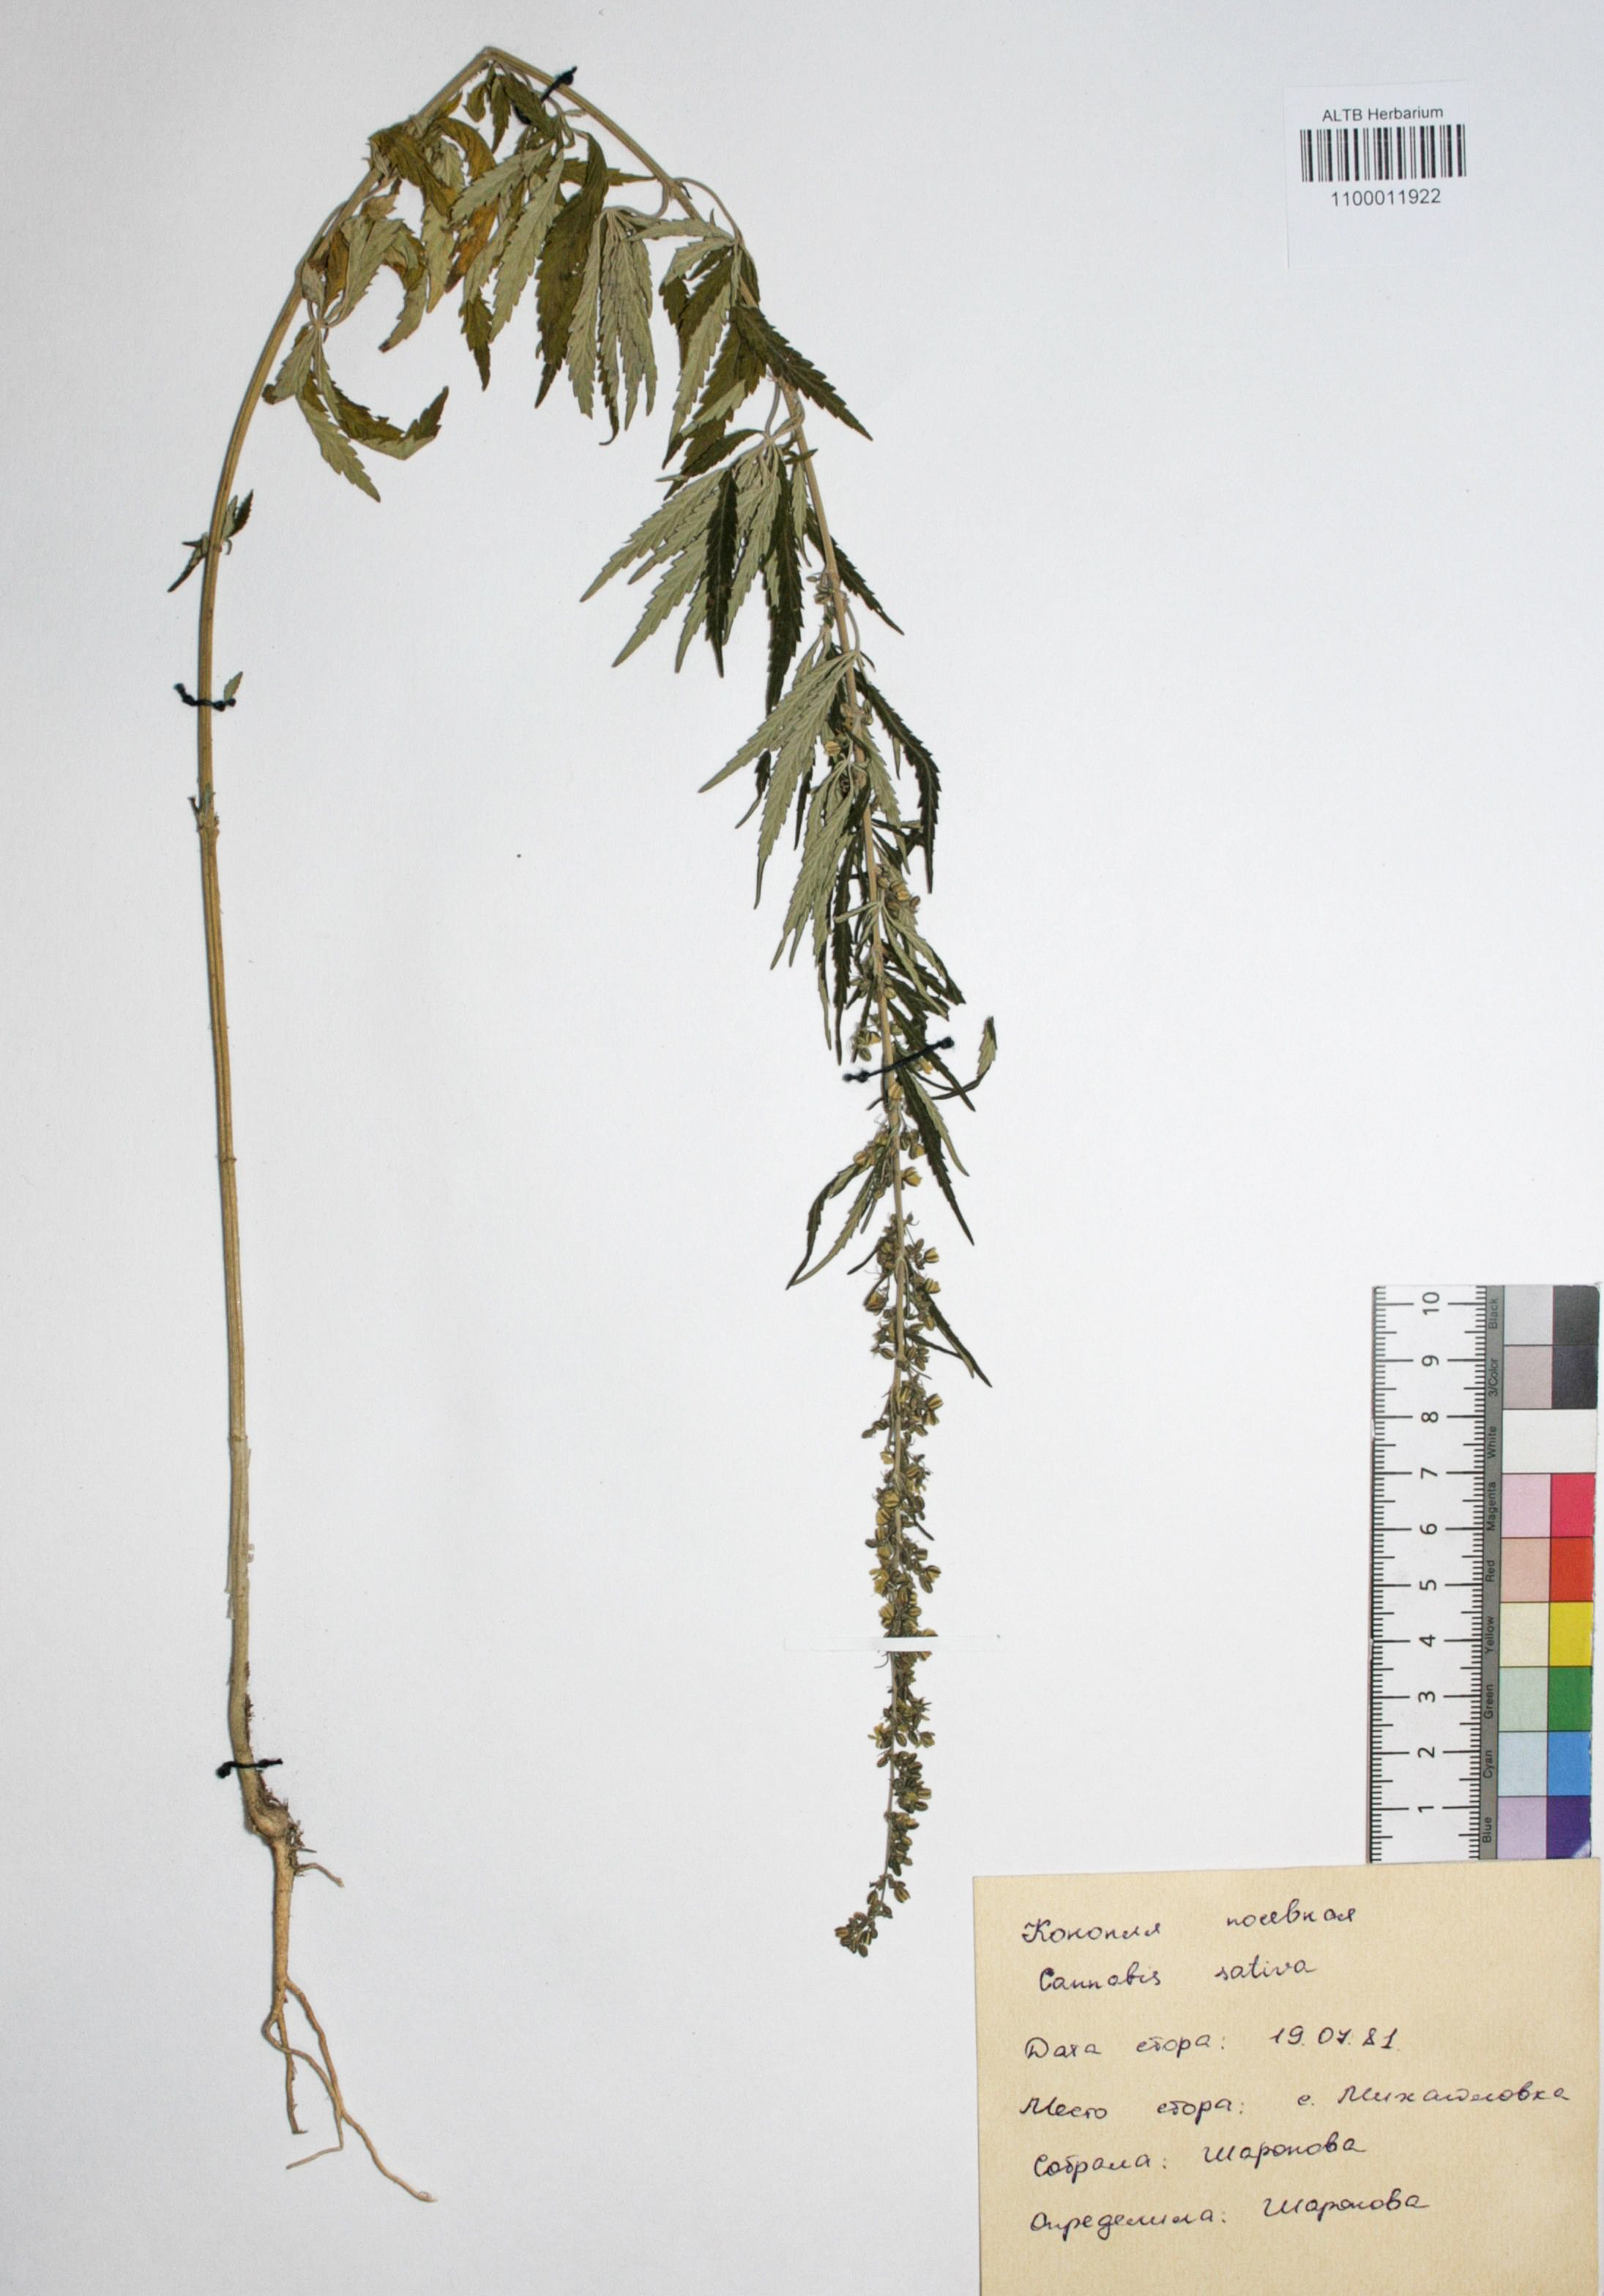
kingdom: Plantae
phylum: Tracheophyta
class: Magnoliopsida
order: Rosales
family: Cannabaceae
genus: Cannabis
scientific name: Cannabis sativa
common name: Hemp
